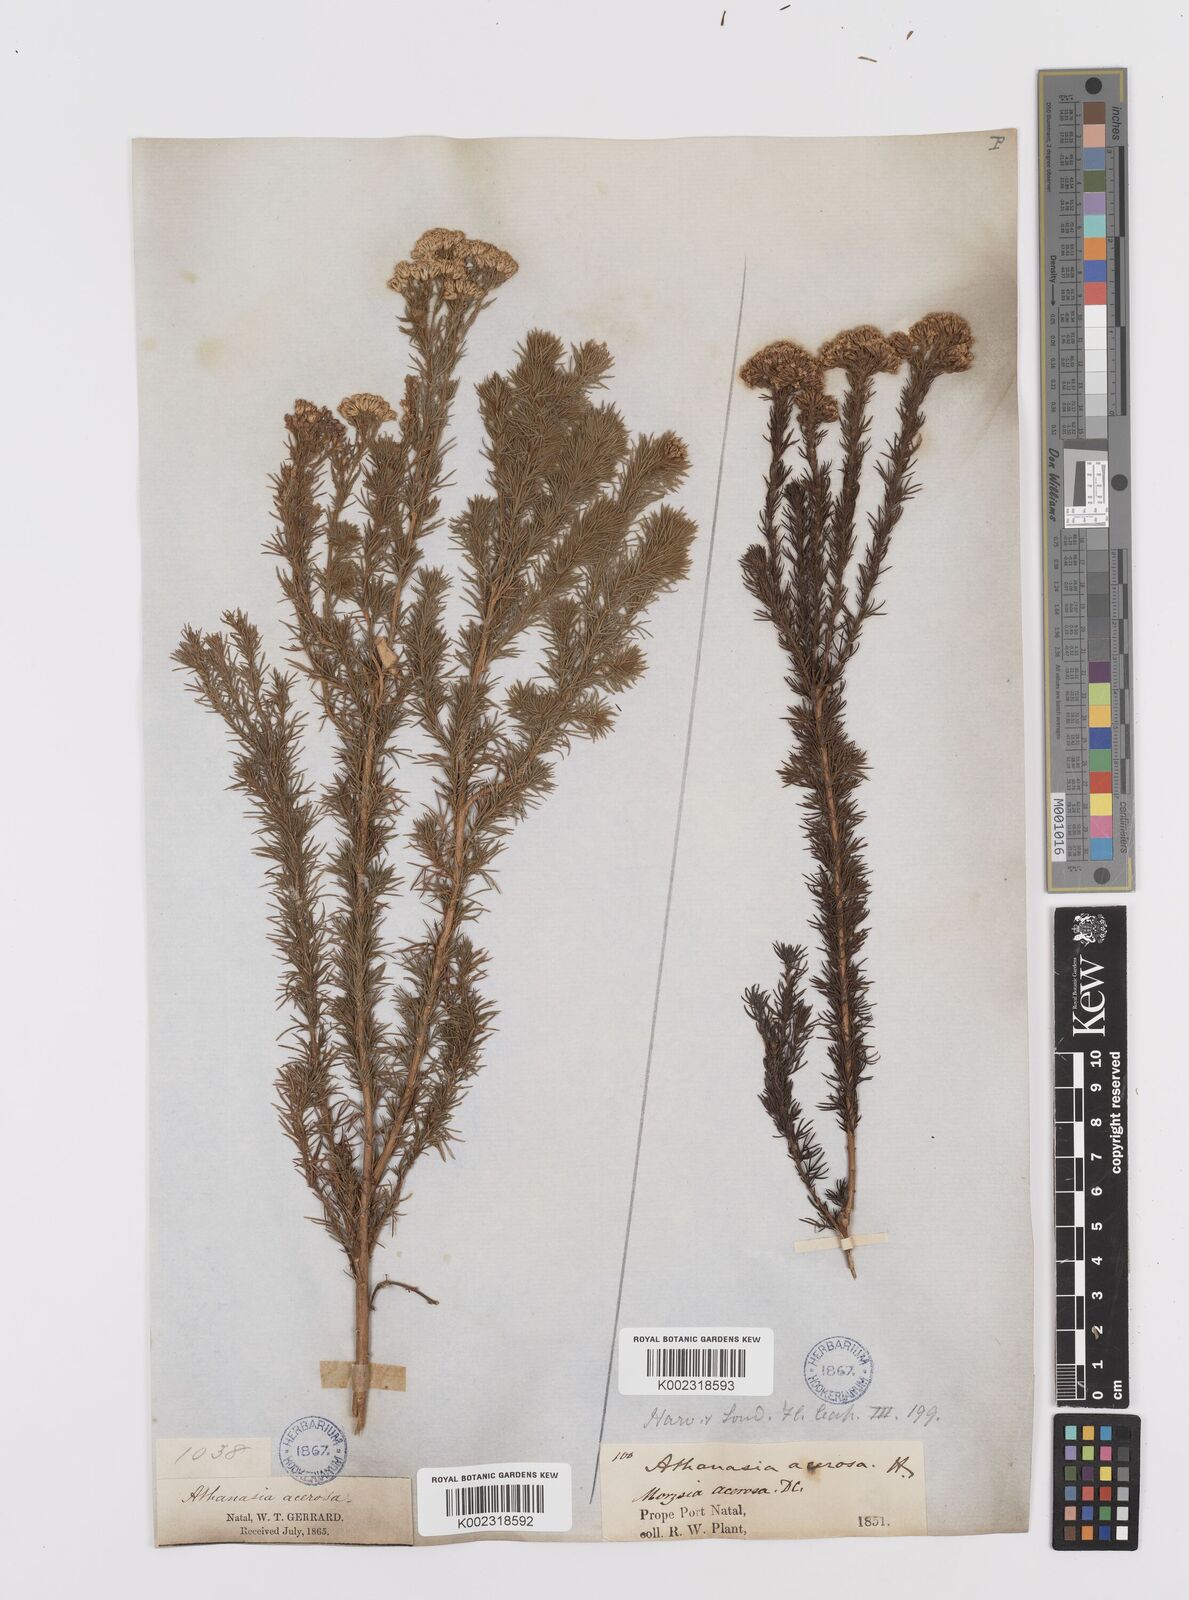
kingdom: Plantae
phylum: Tracheophyta
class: Magnoliopsida
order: Asterales
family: Asteraceae
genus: Phymaspermum
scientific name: Phymaspermum acerosum
